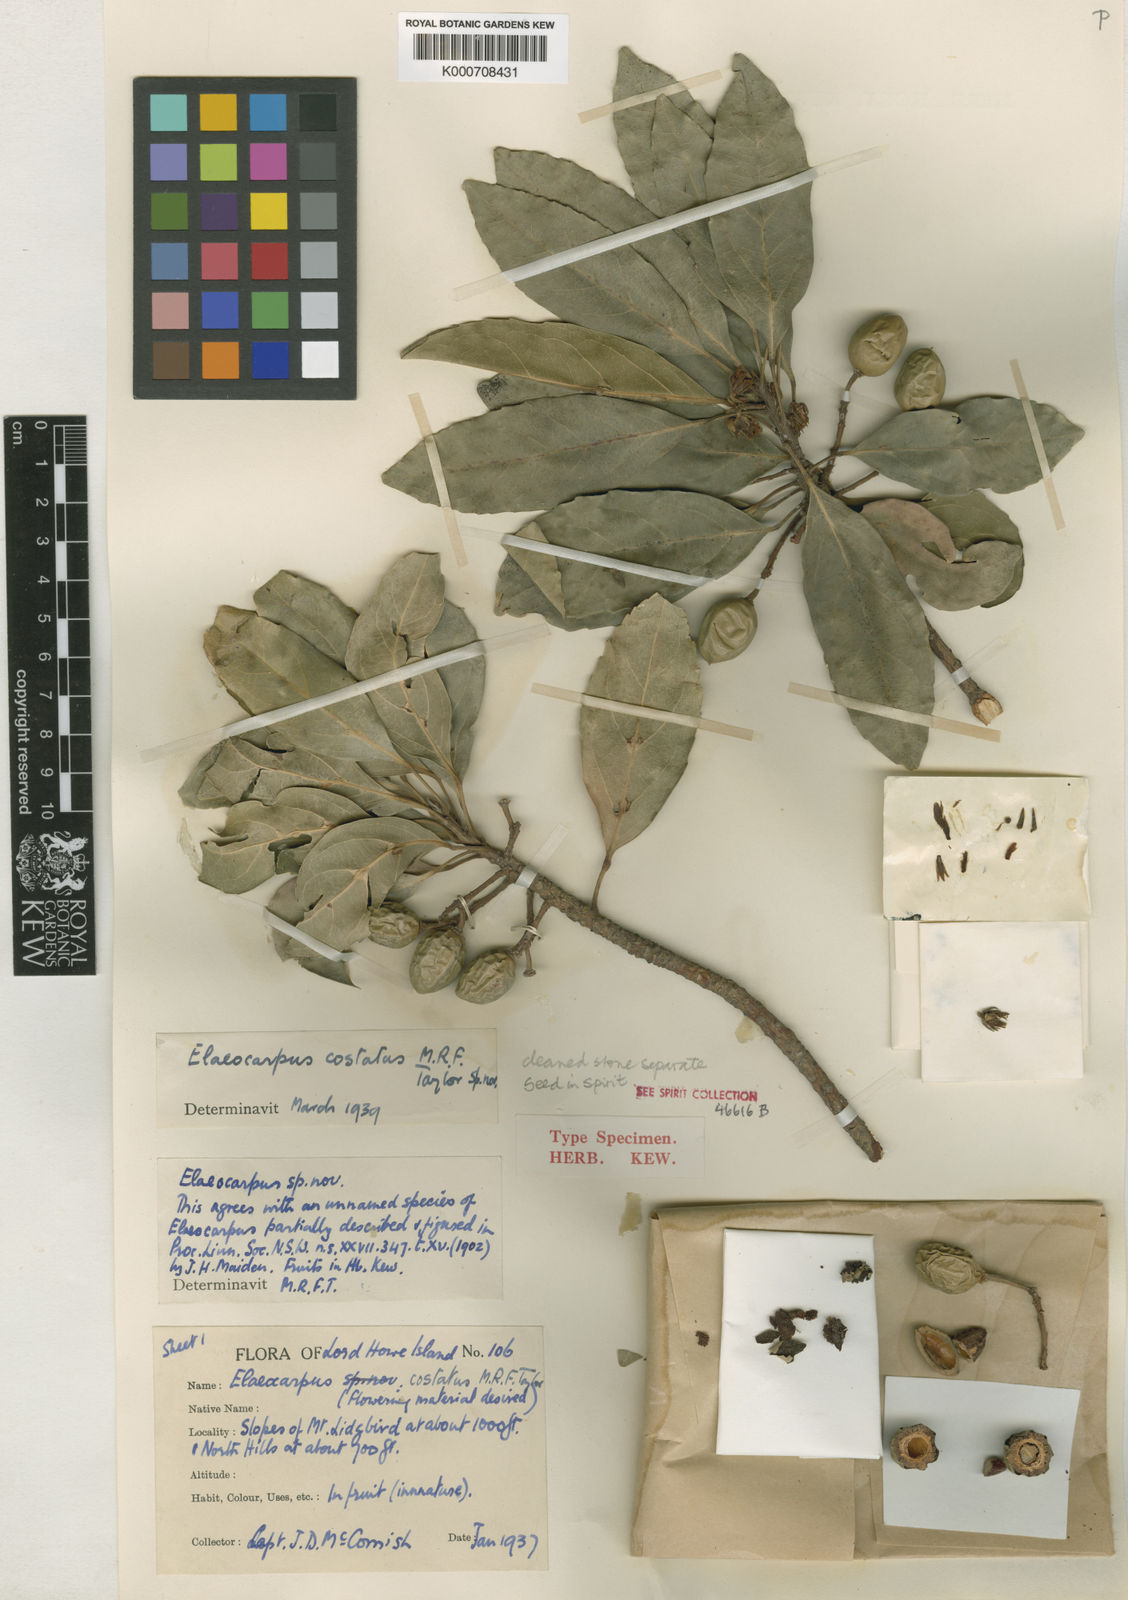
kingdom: Plantae
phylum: Tracheophyta
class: Magnoliopsida
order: Oxalidales
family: Elaeocarpaceae
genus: Elaeocarpus
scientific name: Elaeocarpus costatus
